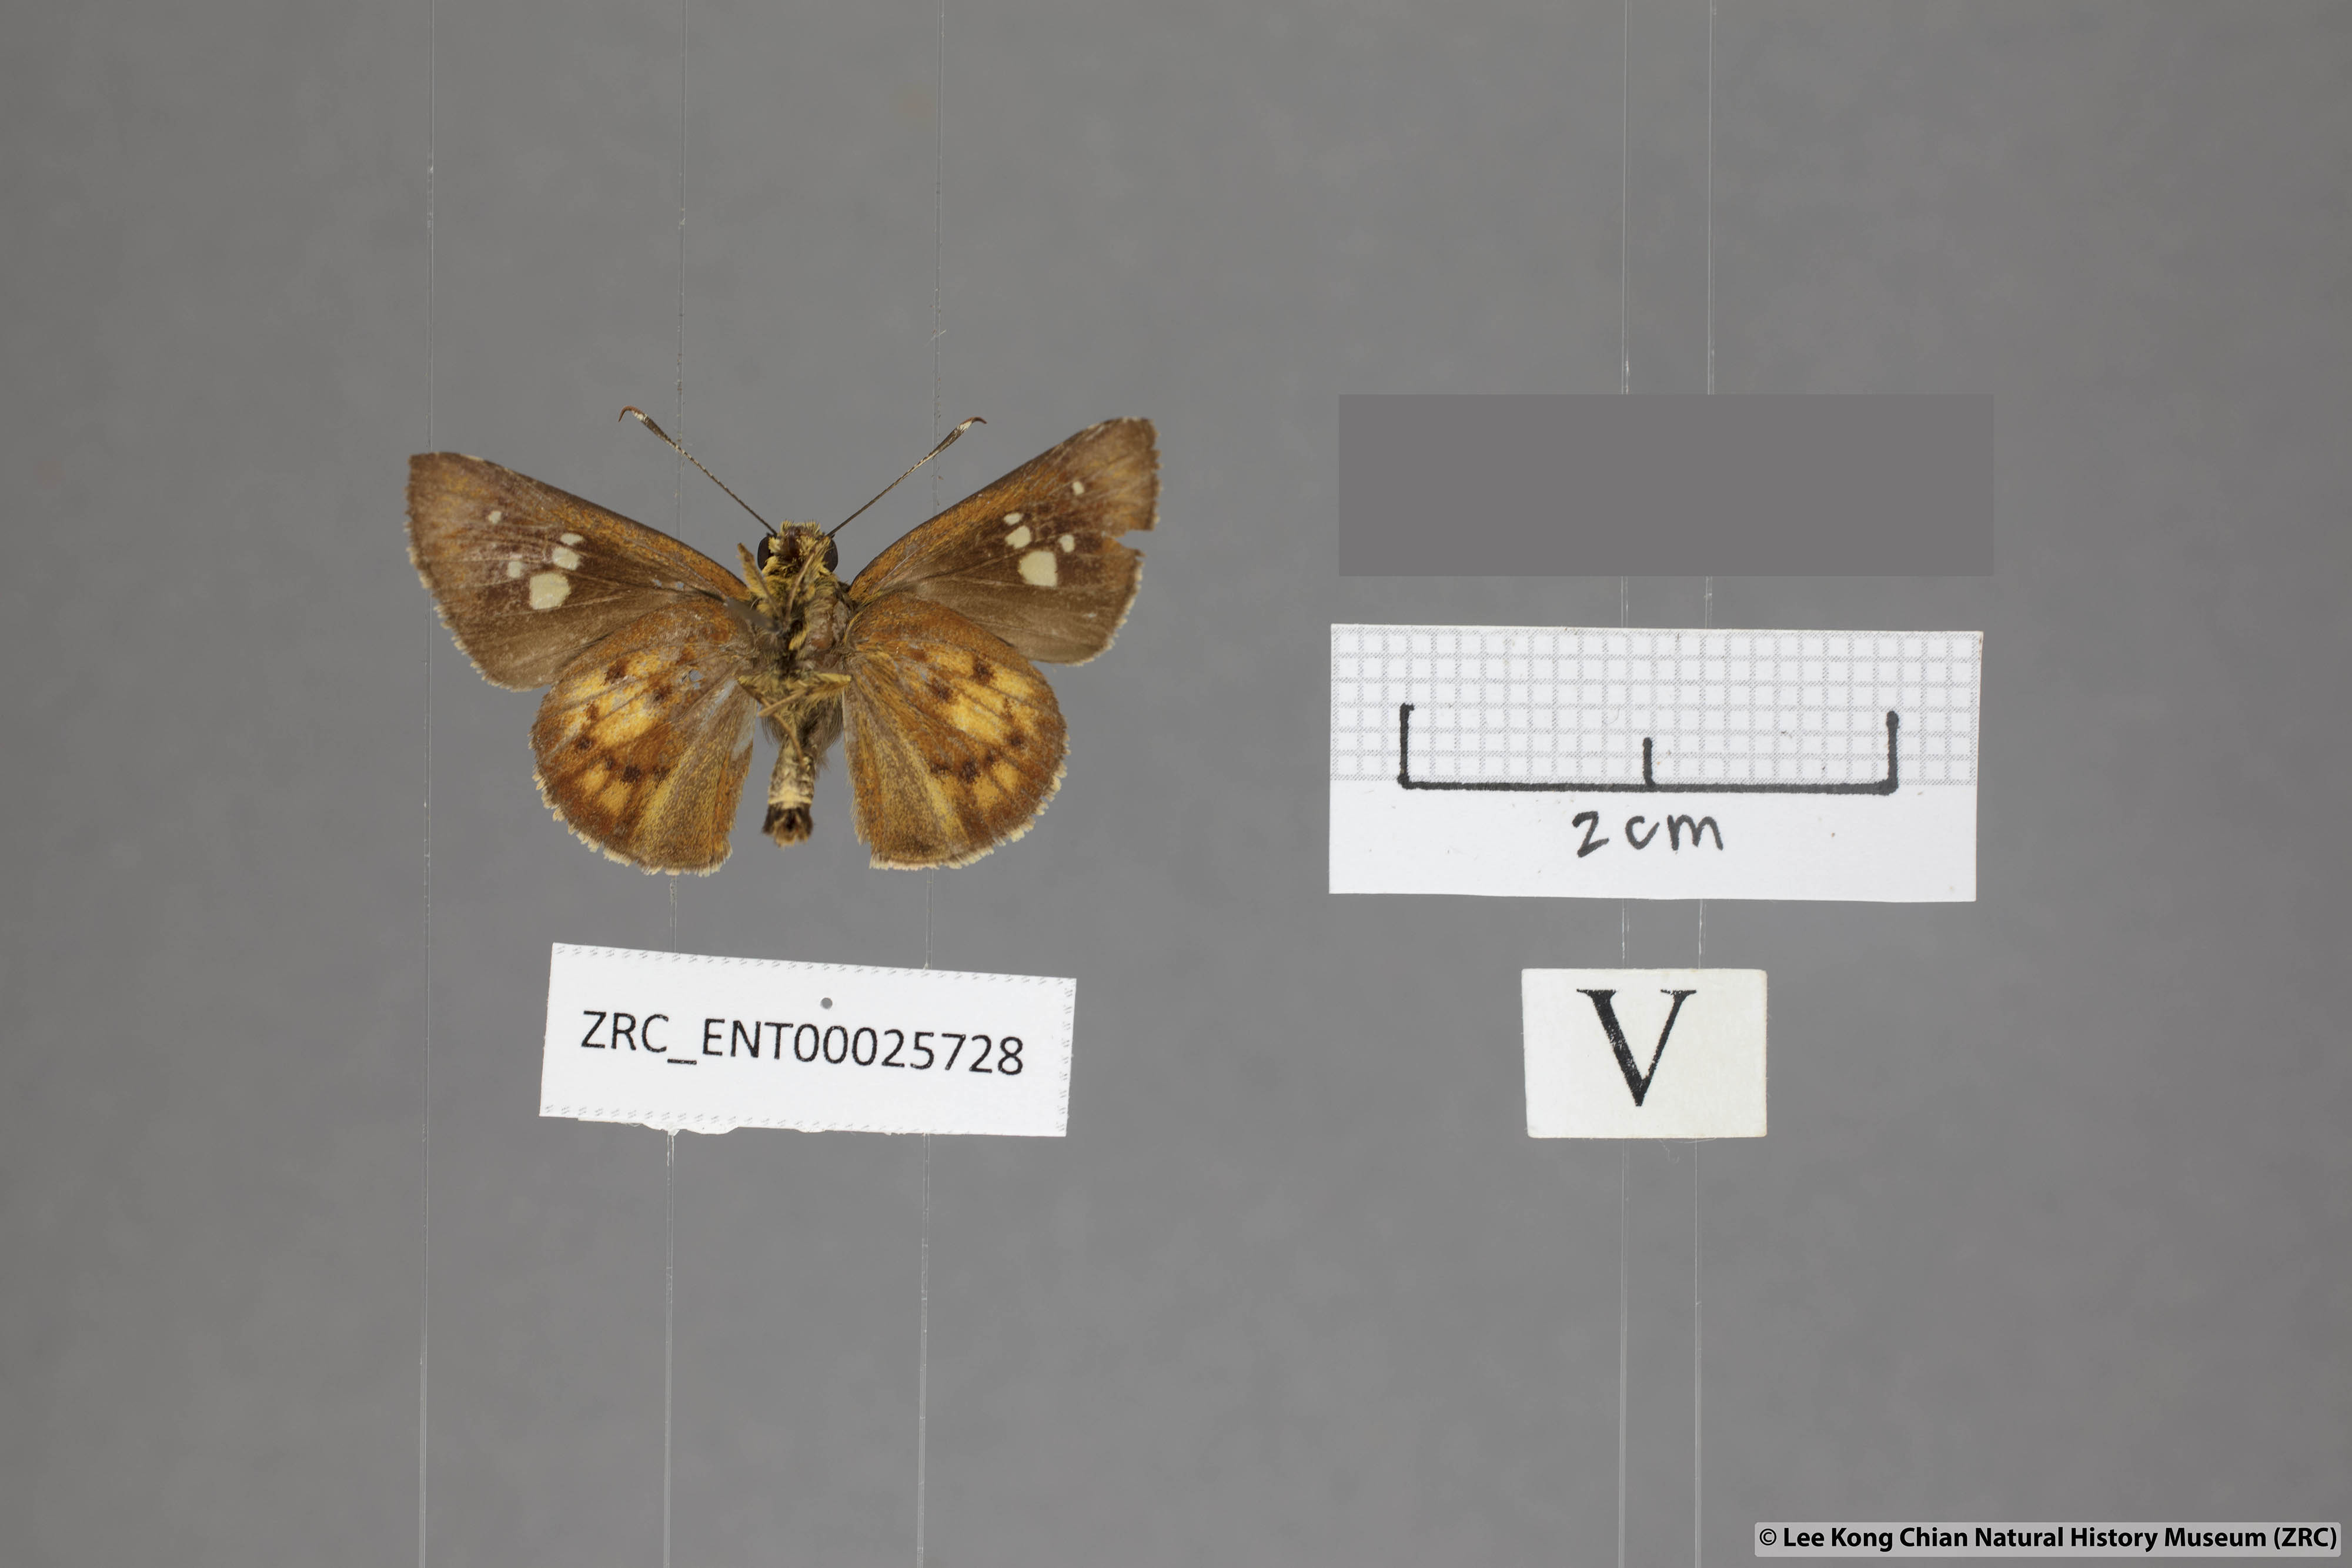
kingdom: Animalia
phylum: Arthropoda
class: Insecta
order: Lepidoptera
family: Hesperiidae
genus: Zographetus
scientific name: Zographetus doxus
